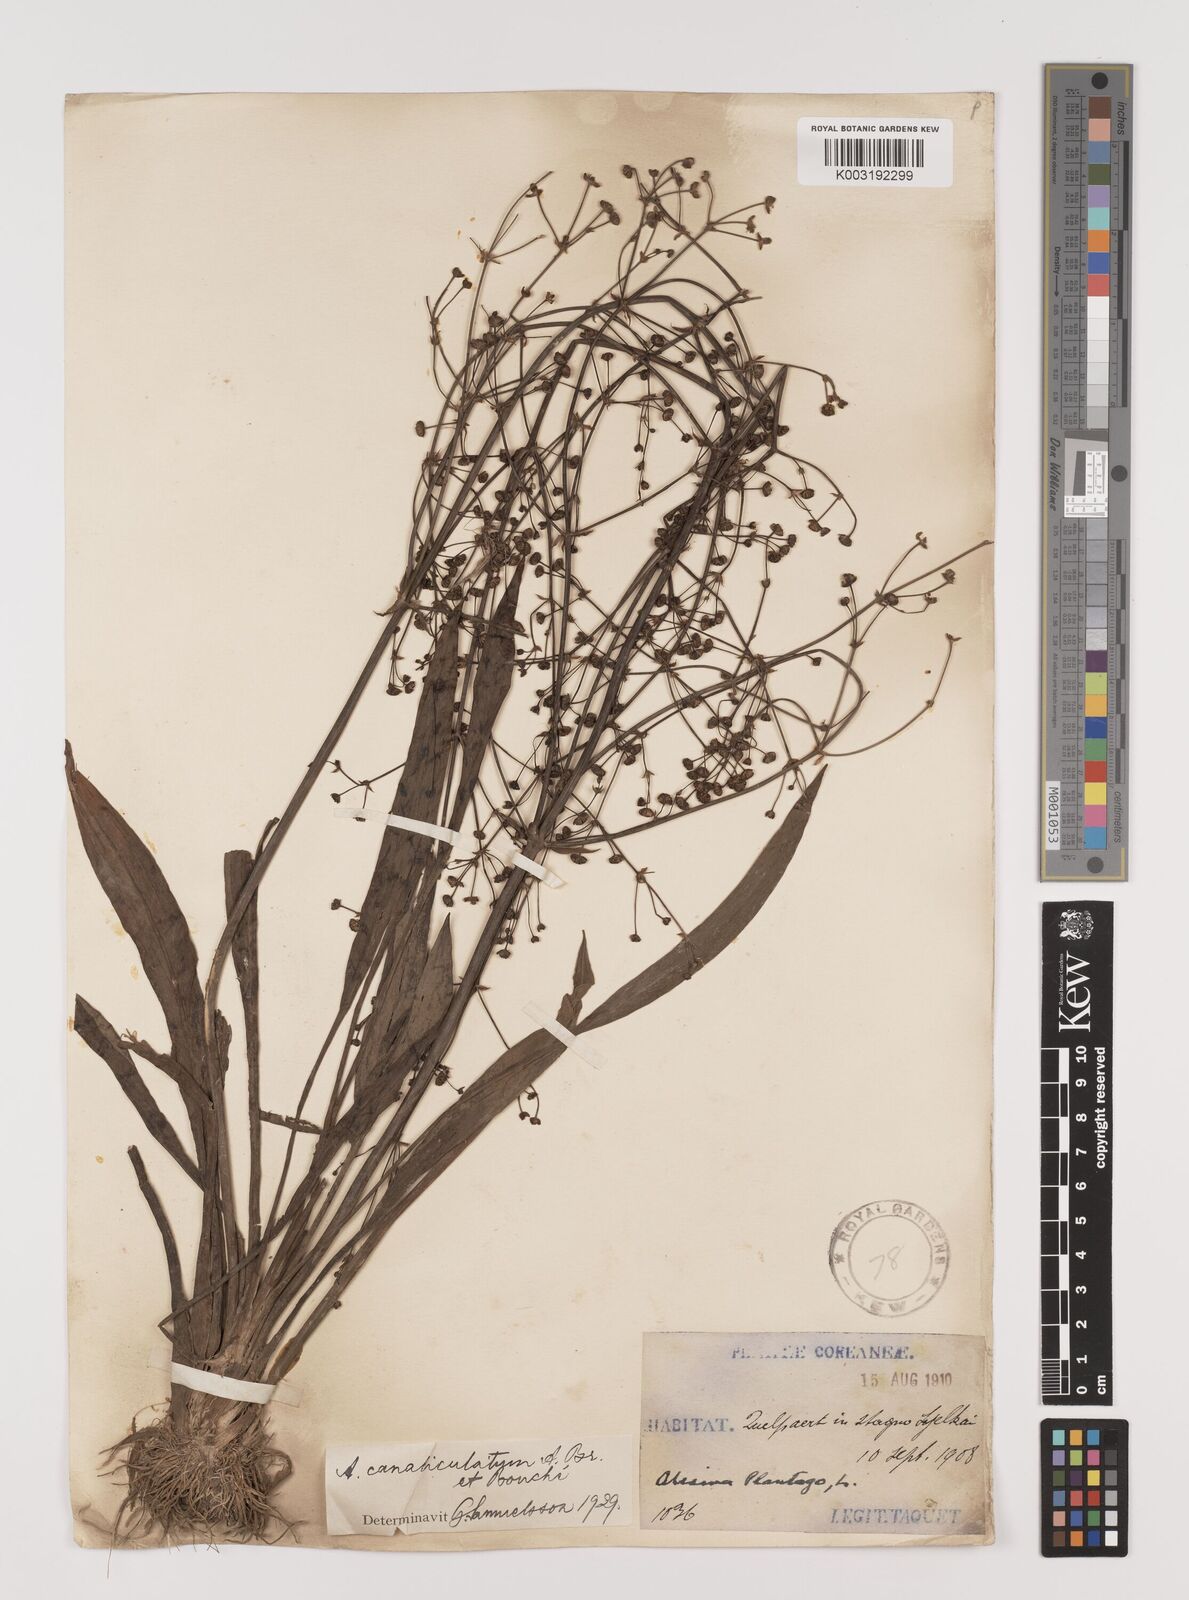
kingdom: Plantae
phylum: Tracheophyta
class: Liliopsida
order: Alismatales
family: Alismataceae
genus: Alisma
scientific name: Alisma canaliculatum
